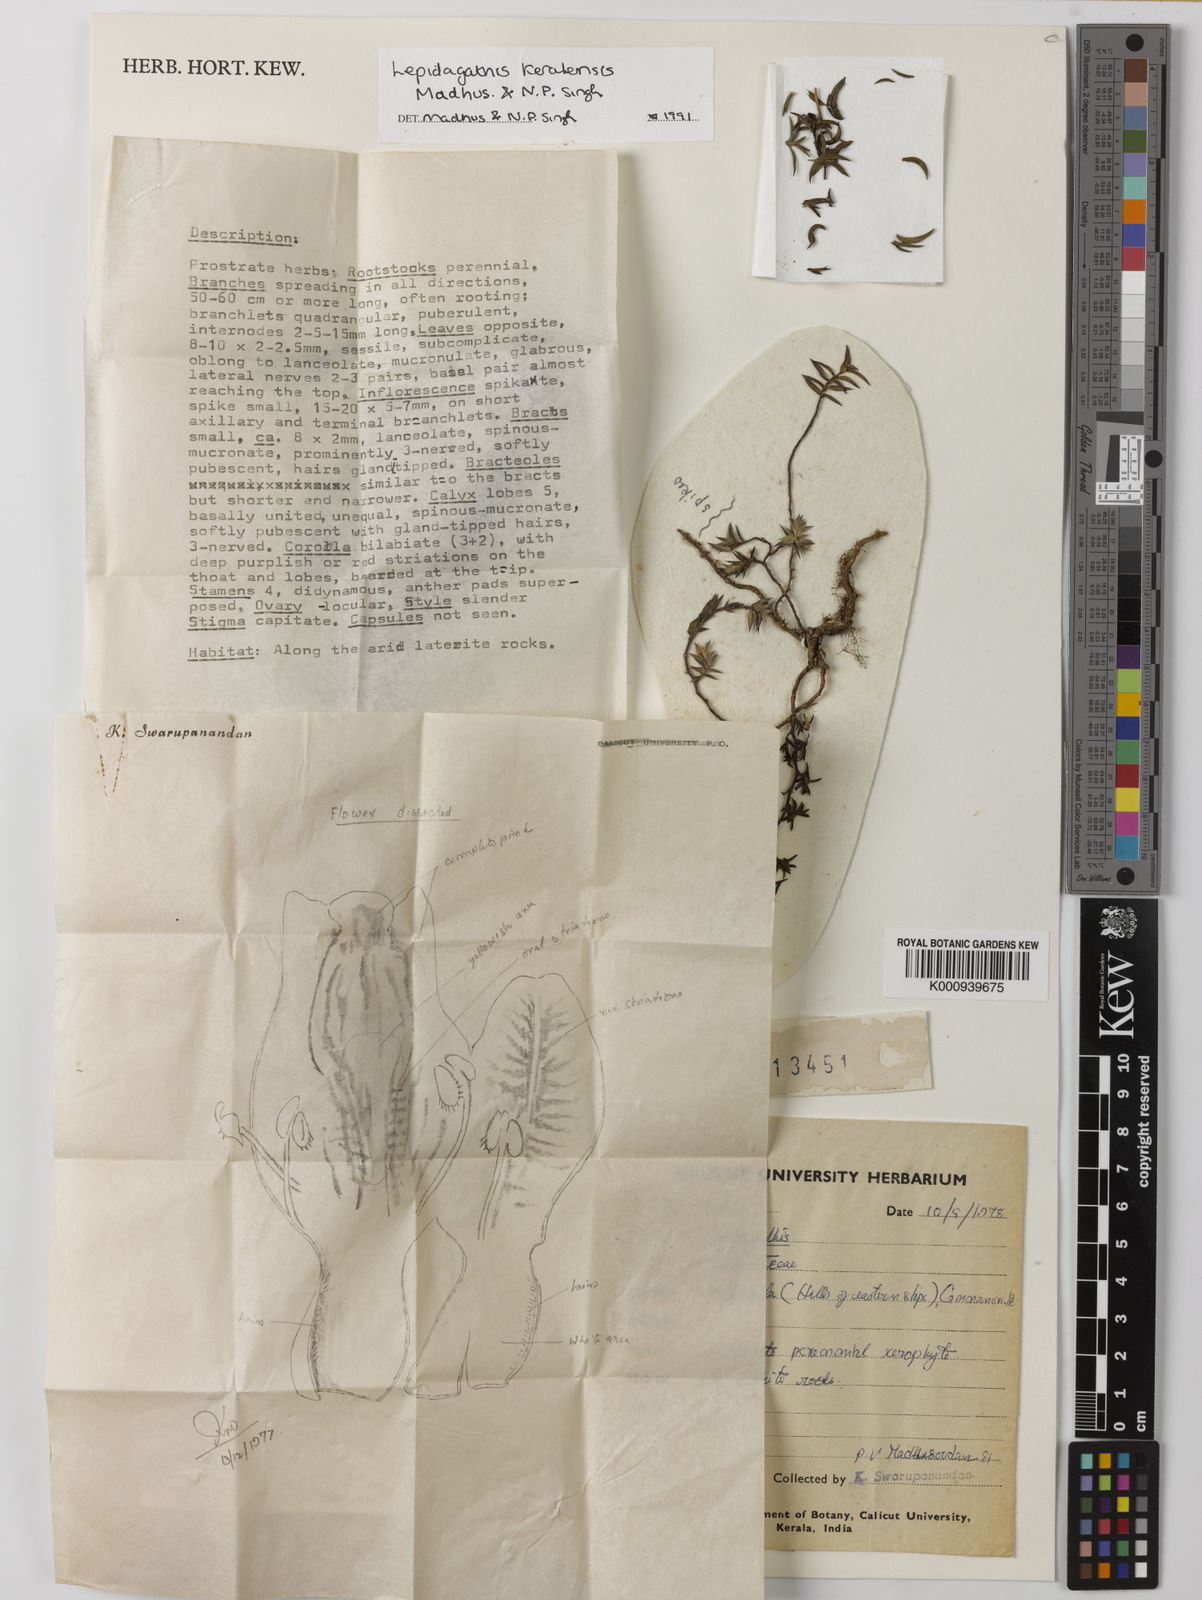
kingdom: Plantae
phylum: Tracheophyta
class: Magnoliopsida
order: Lamiales
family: Acanthaceae
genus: Lepidagathis
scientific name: Lepidagathis keralensis
